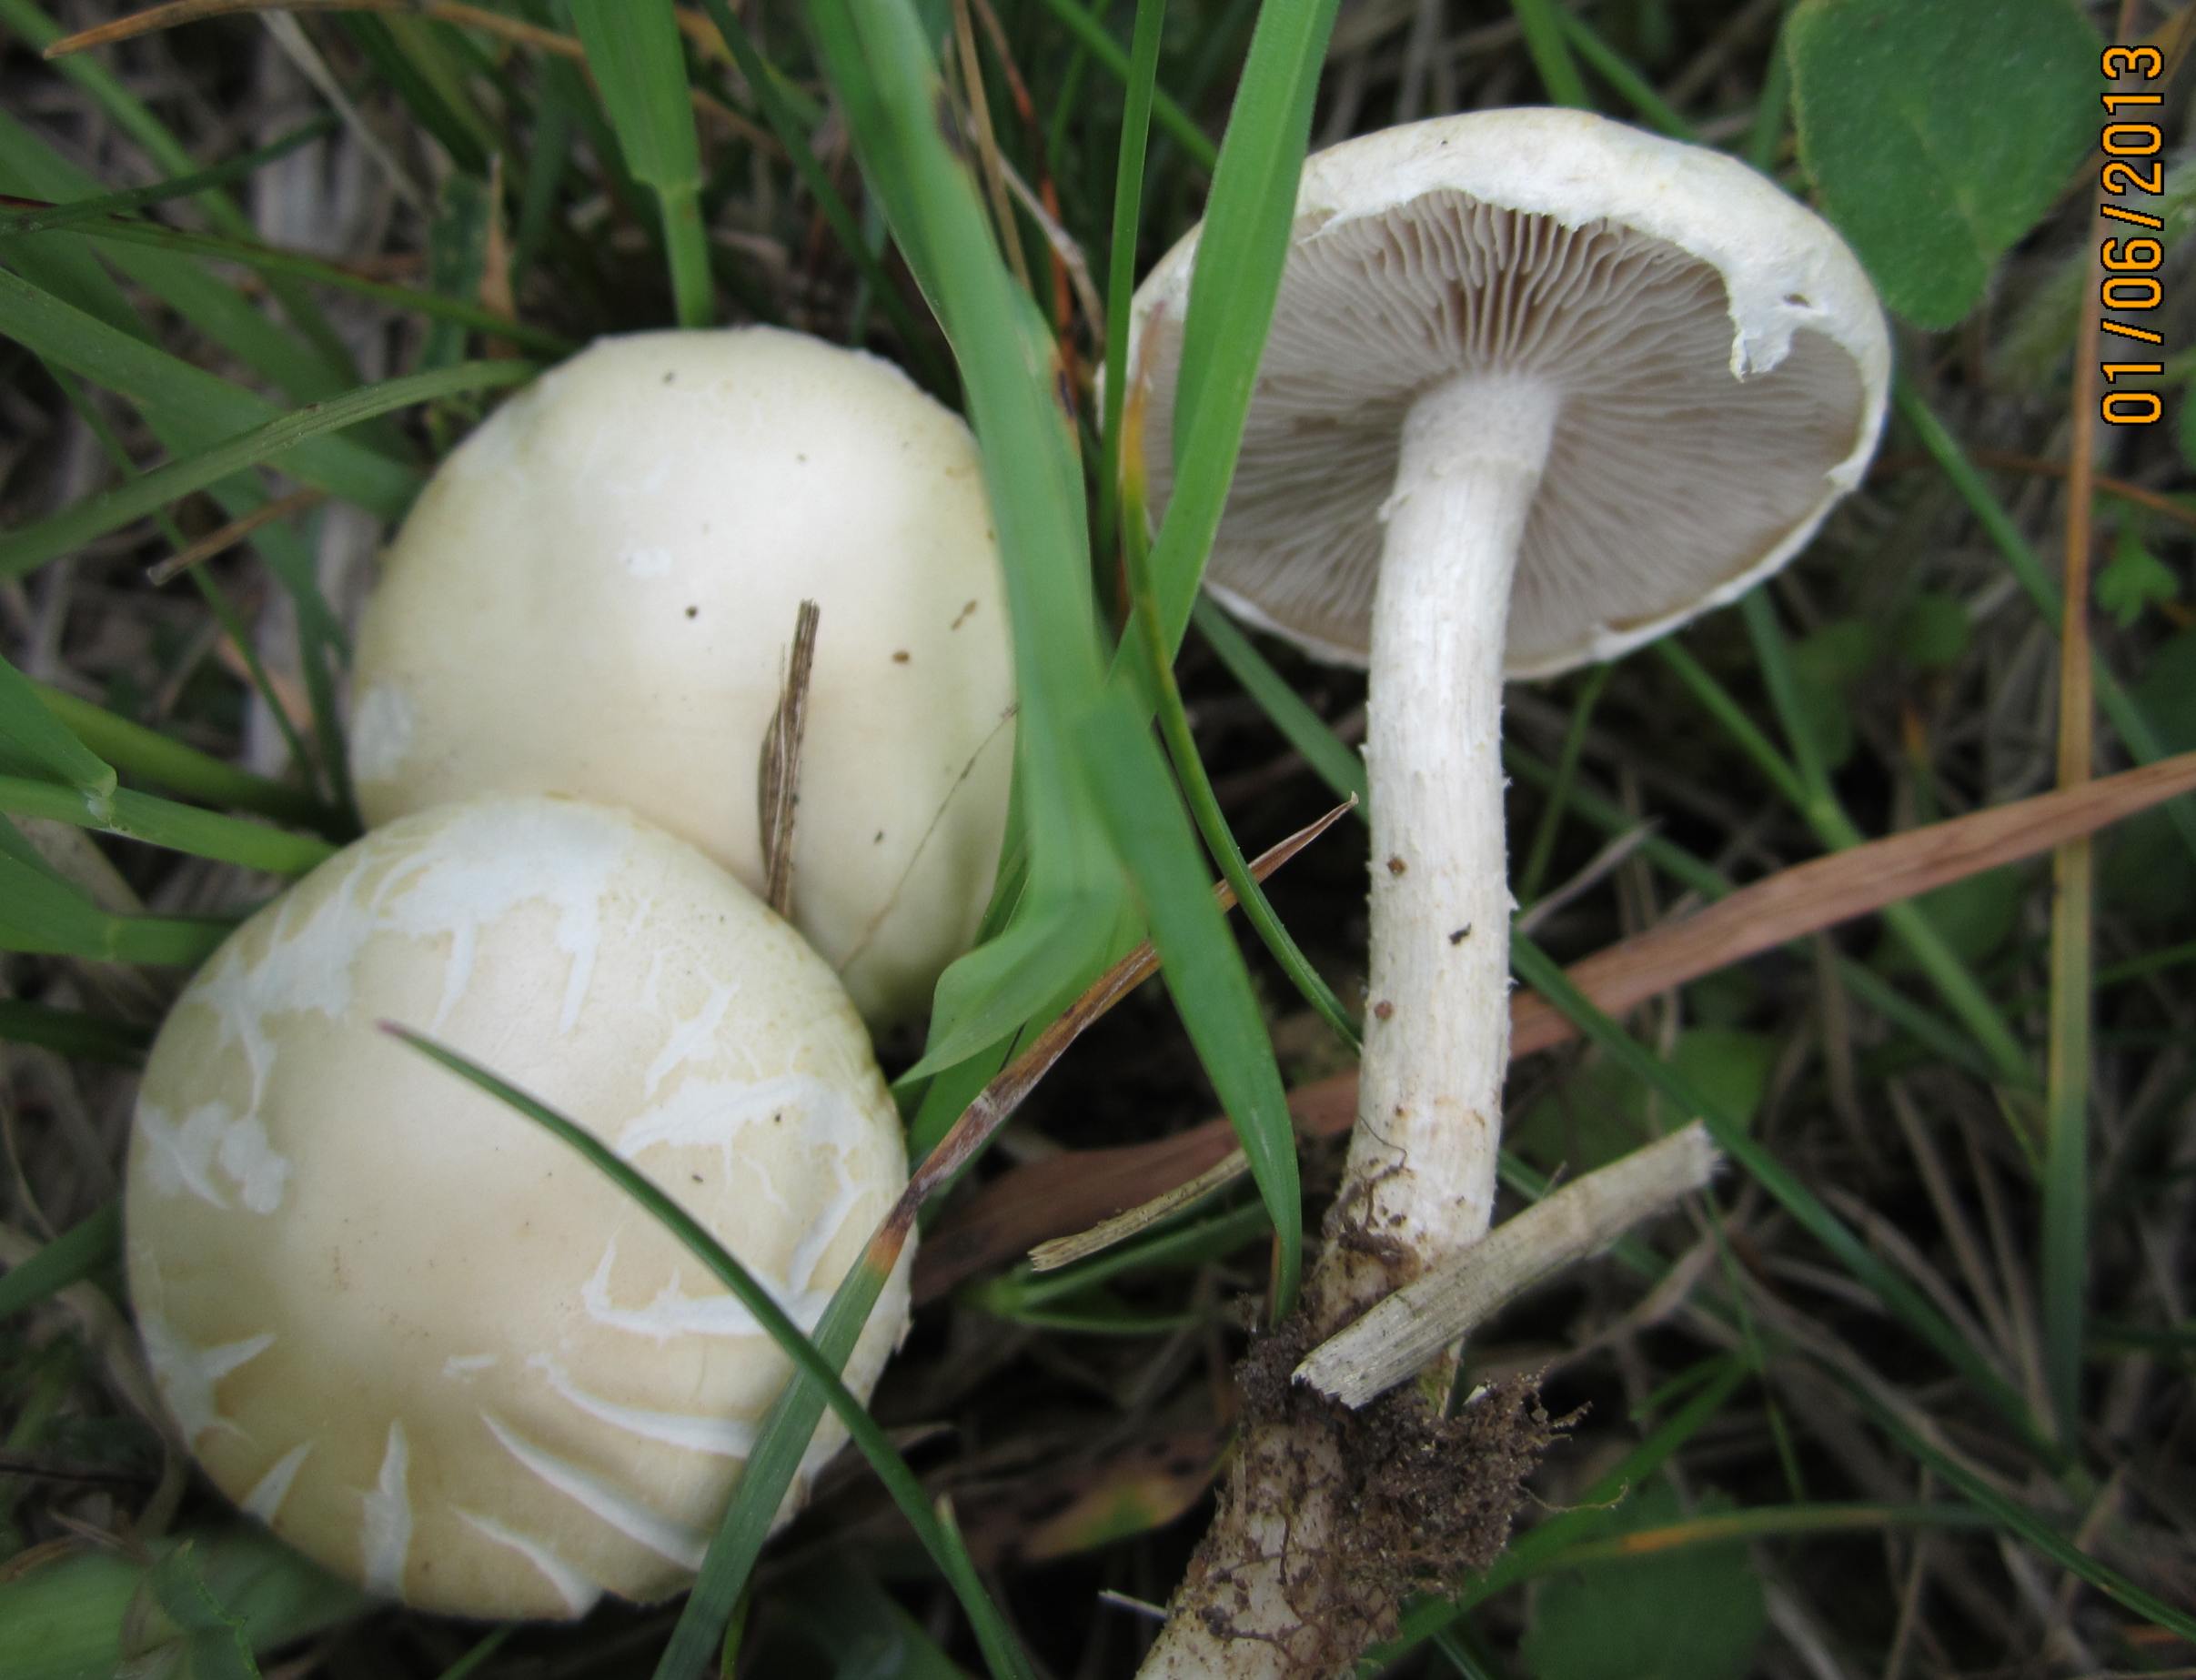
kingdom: Fungi
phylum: Basidiomycota
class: Agaricomycetes
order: Agaricales
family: Strophariaceae
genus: Agrocybe
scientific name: Agrocybe dura
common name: fastkødet agerhat
